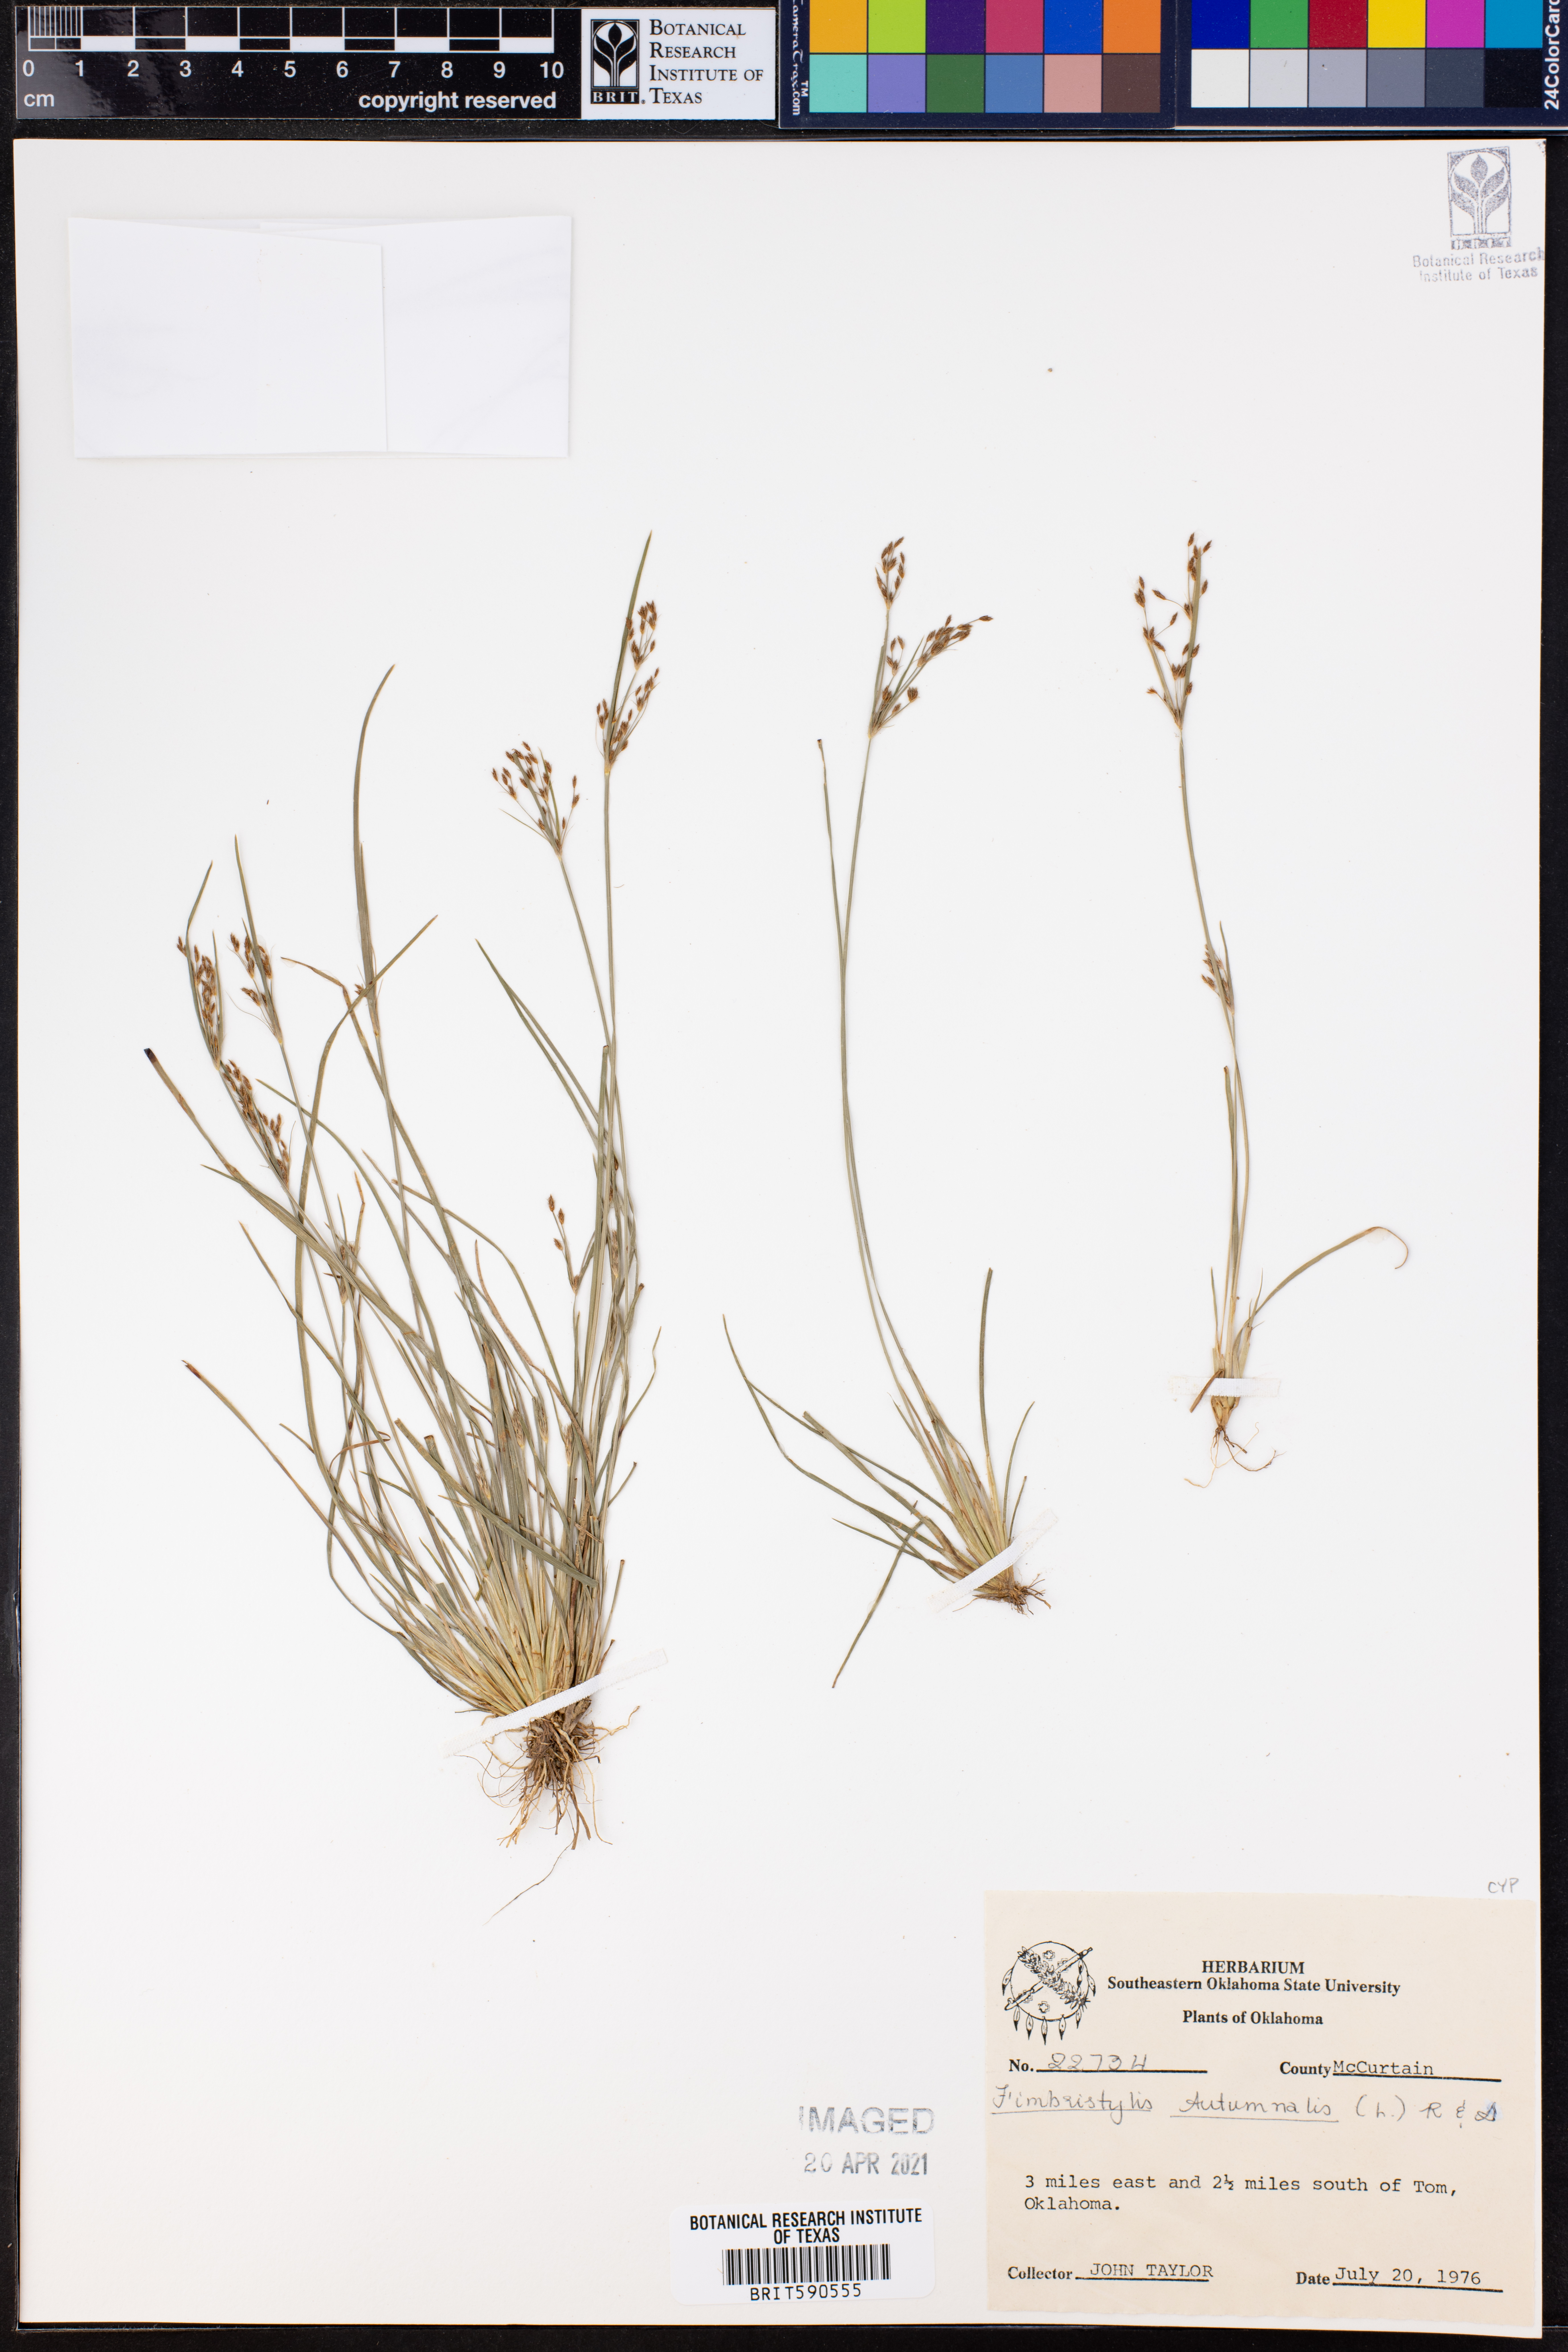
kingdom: Plantae
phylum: Tracheophyta
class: Liliopsida
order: Poales
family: Cyperaceae
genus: Fimbristylis
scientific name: Fimbristylis autumnalis
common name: Slender fimbristylis
